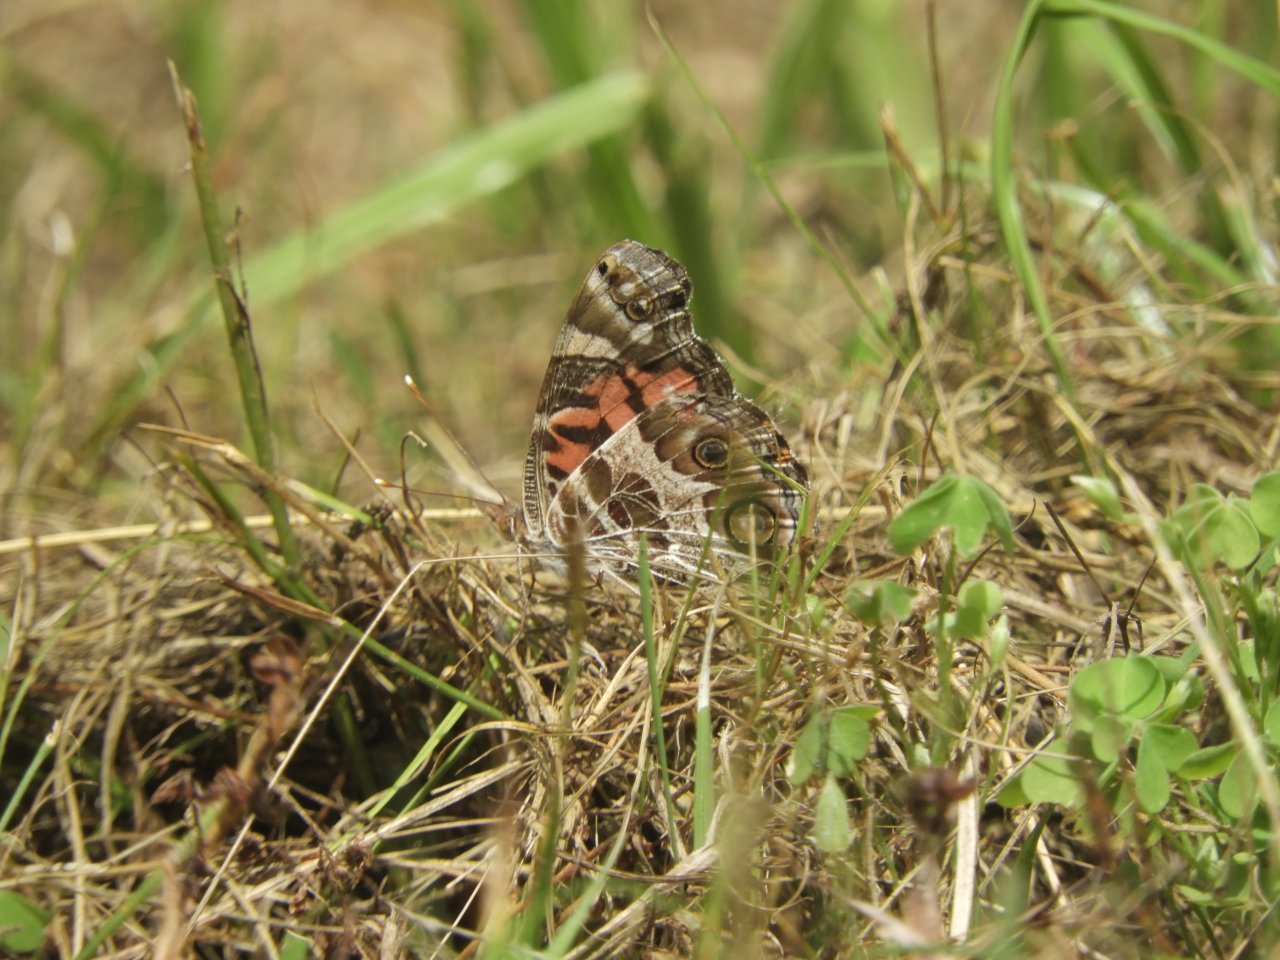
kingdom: Animalia
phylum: Arthropoda
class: Insecta
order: Lepidoptera
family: Nymphalidae
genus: Vanessa
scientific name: Vanessa virginiensis
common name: American Lady
